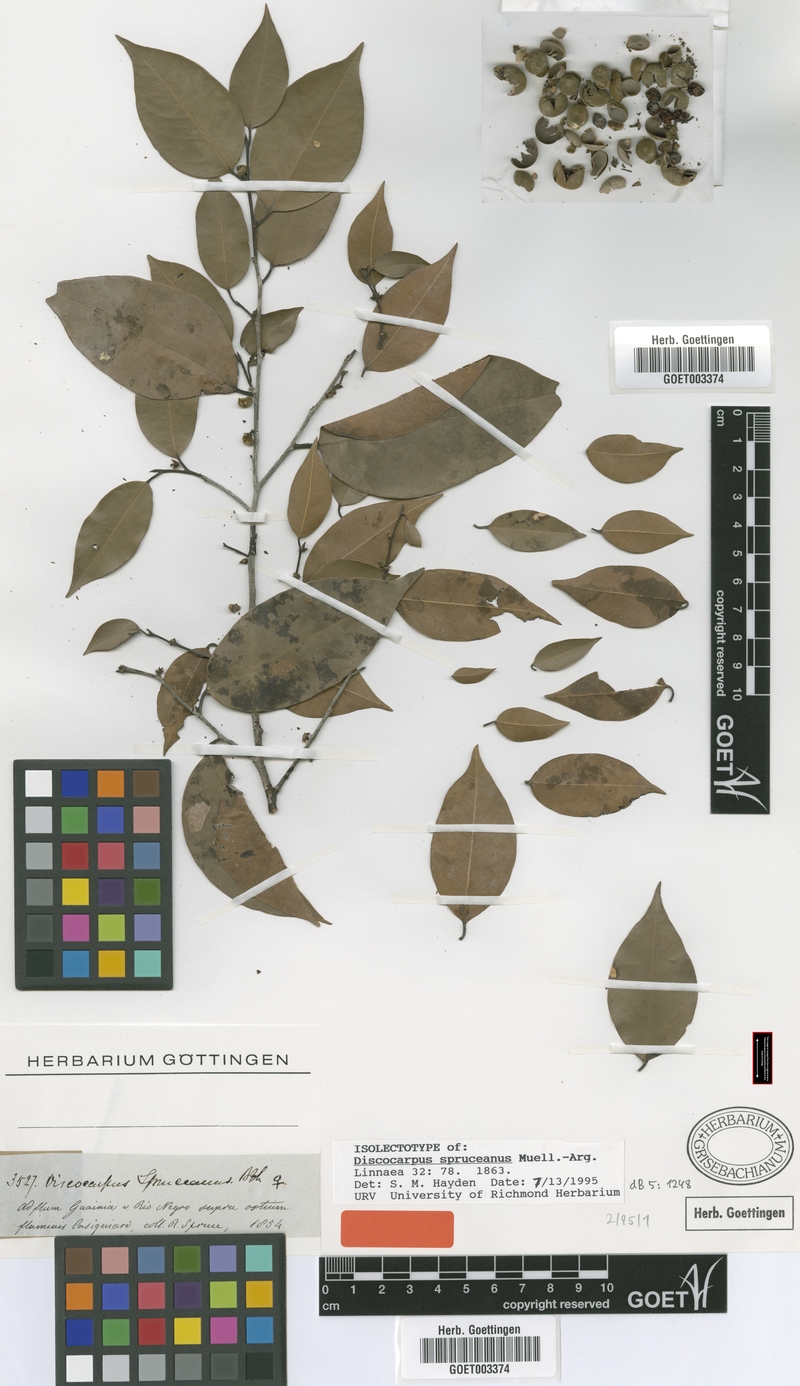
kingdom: Plantae
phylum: Tracheophyta
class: Magnoliopsida
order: Malpighiales
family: Phyllanthaceae
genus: Discocarpus
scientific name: Discocarpus spruceanus
